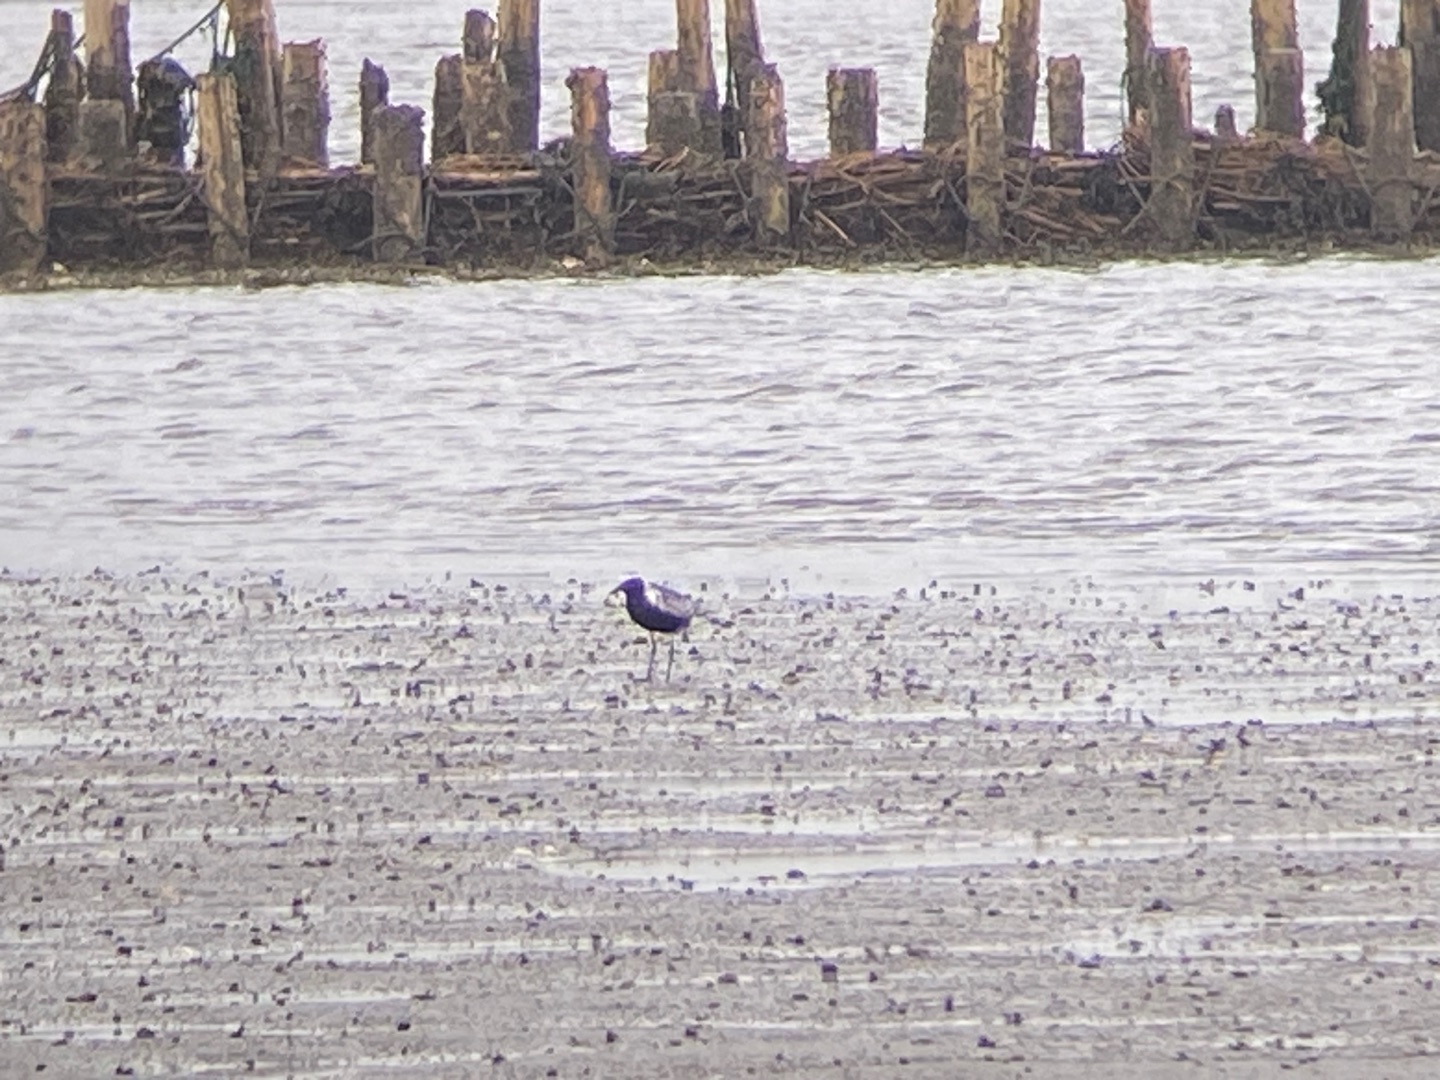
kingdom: Animalia
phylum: Chordata
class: Aves
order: Charadriiformes
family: Charadriidae
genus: Pluvialis
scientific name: Pluvialis squatarola
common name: Strandhjejle
